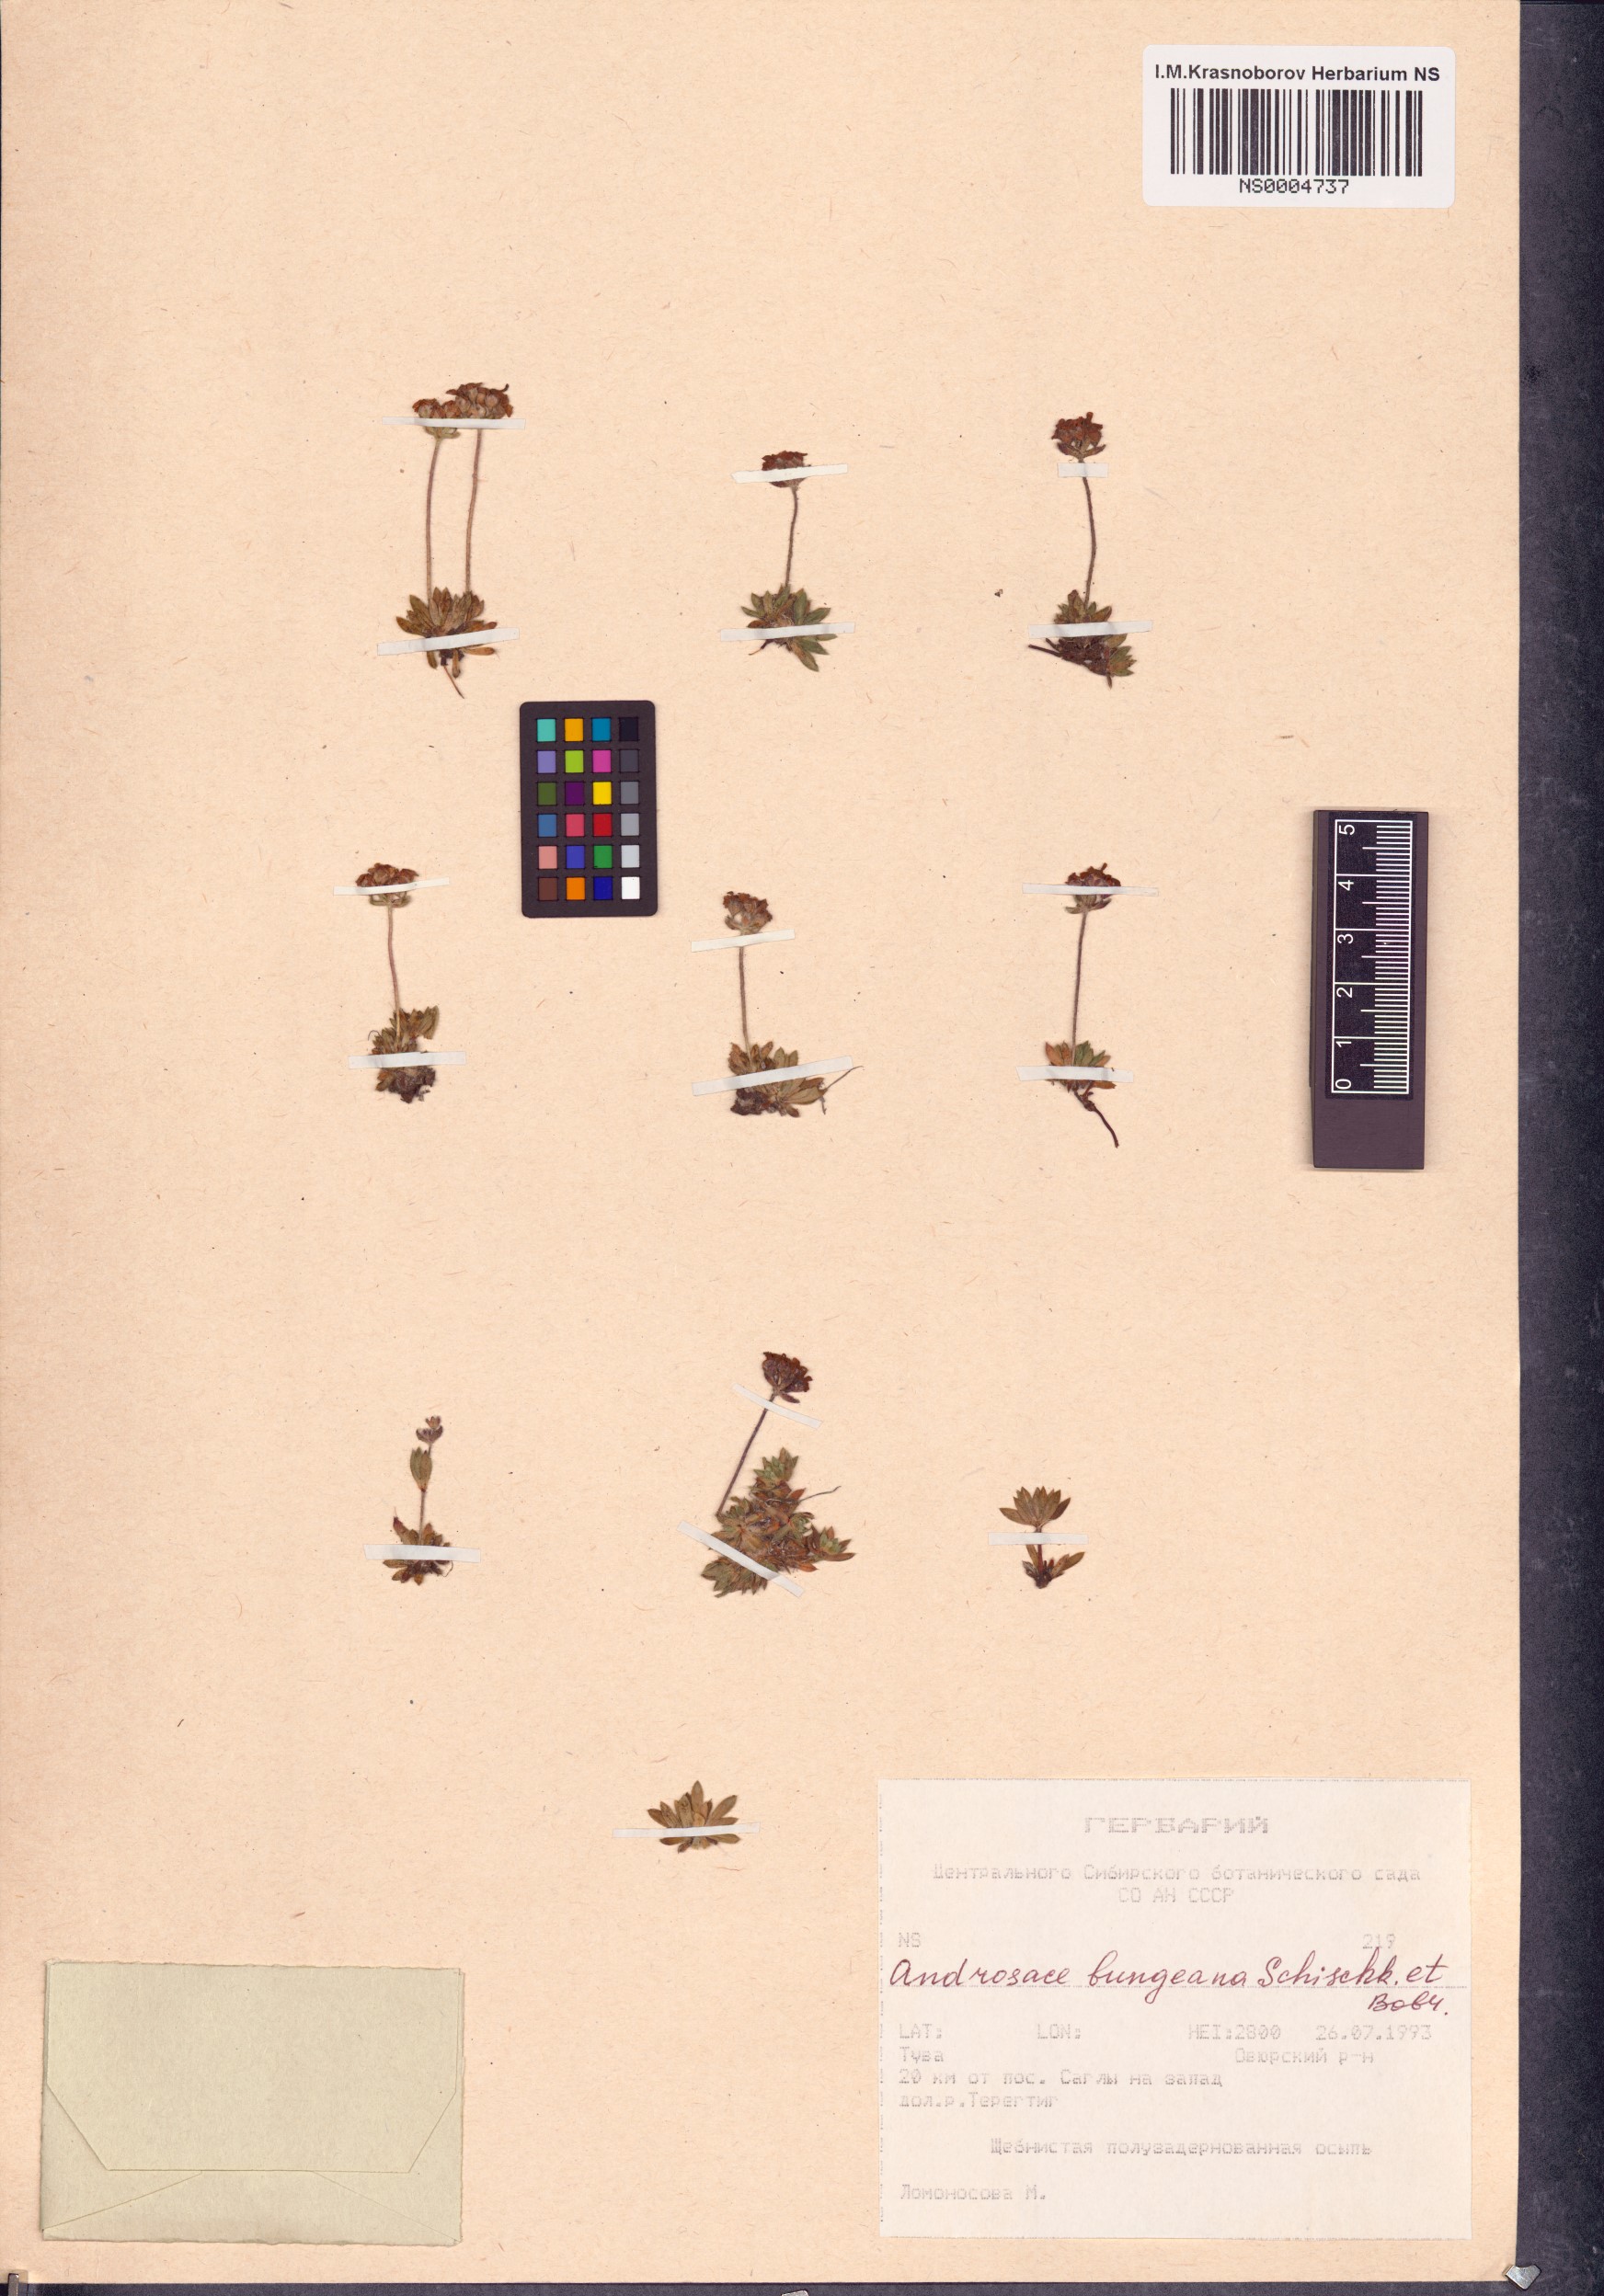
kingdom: Plantae
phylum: Tracheophyta
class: Magnoliopsida
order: Ericales
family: Primulaceae
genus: Androsace
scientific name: Androsace bungeana
